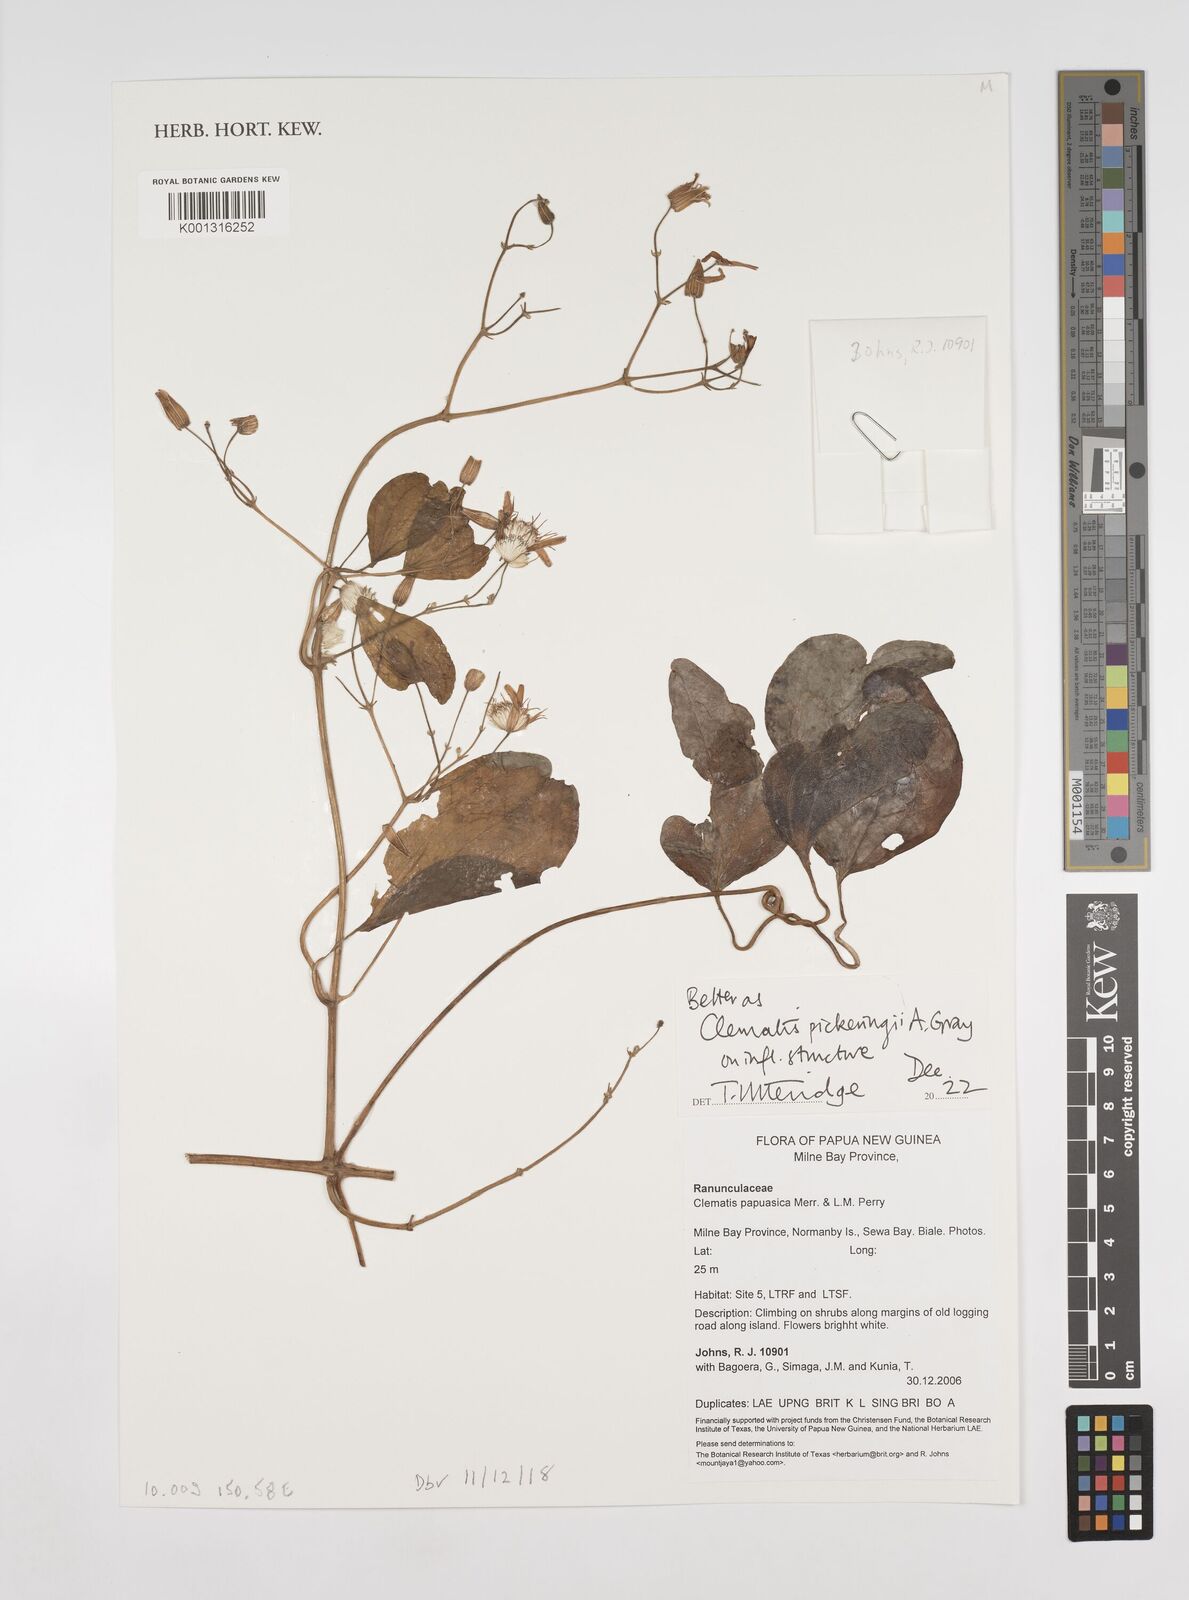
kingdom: Plantae
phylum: Tracheophyta
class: Magnoliopsida
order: Ranunculales
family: Ranunculaceae
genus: Clematis
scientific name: Clematis pickeringii
